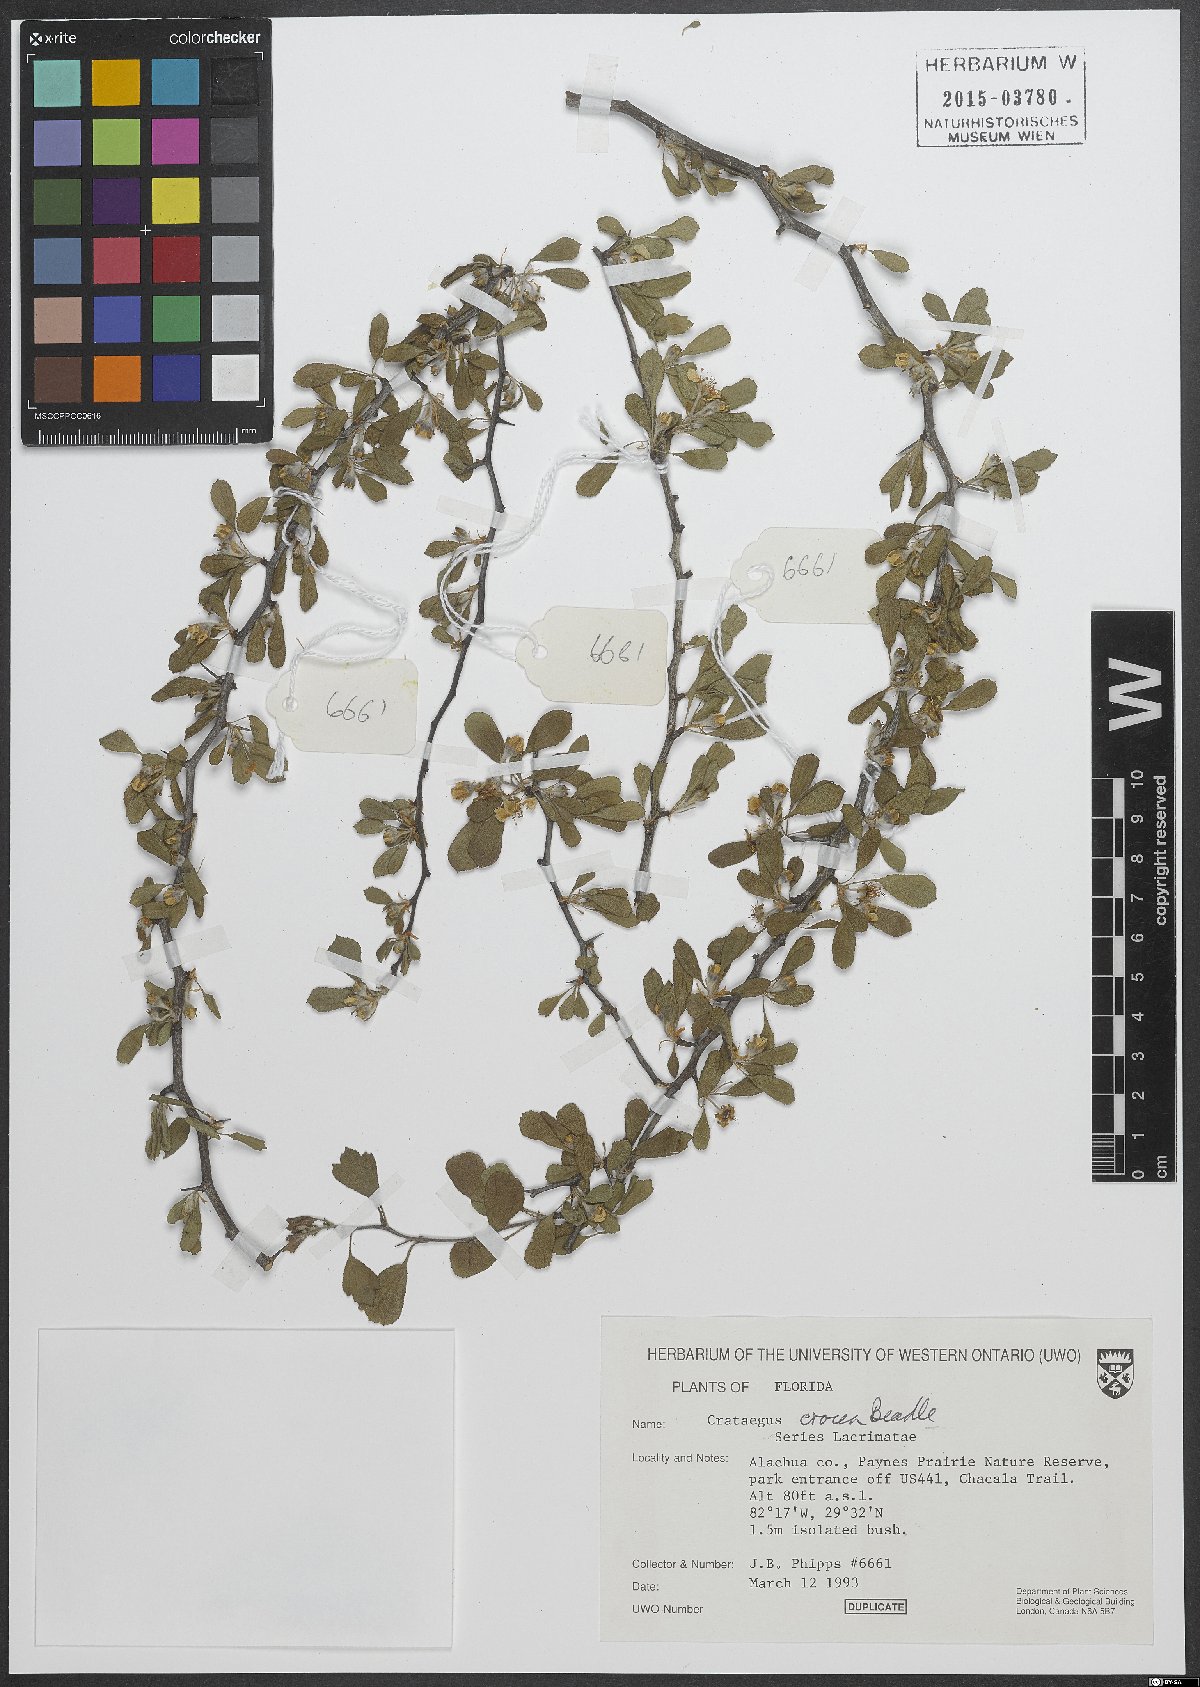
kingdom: Plantae
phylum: Tracheophyta
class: Magnoliopsida
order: Rosales
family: Rosaceae
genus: Crataegus
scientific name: Crataegus lassa
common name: Florida hawthorn
